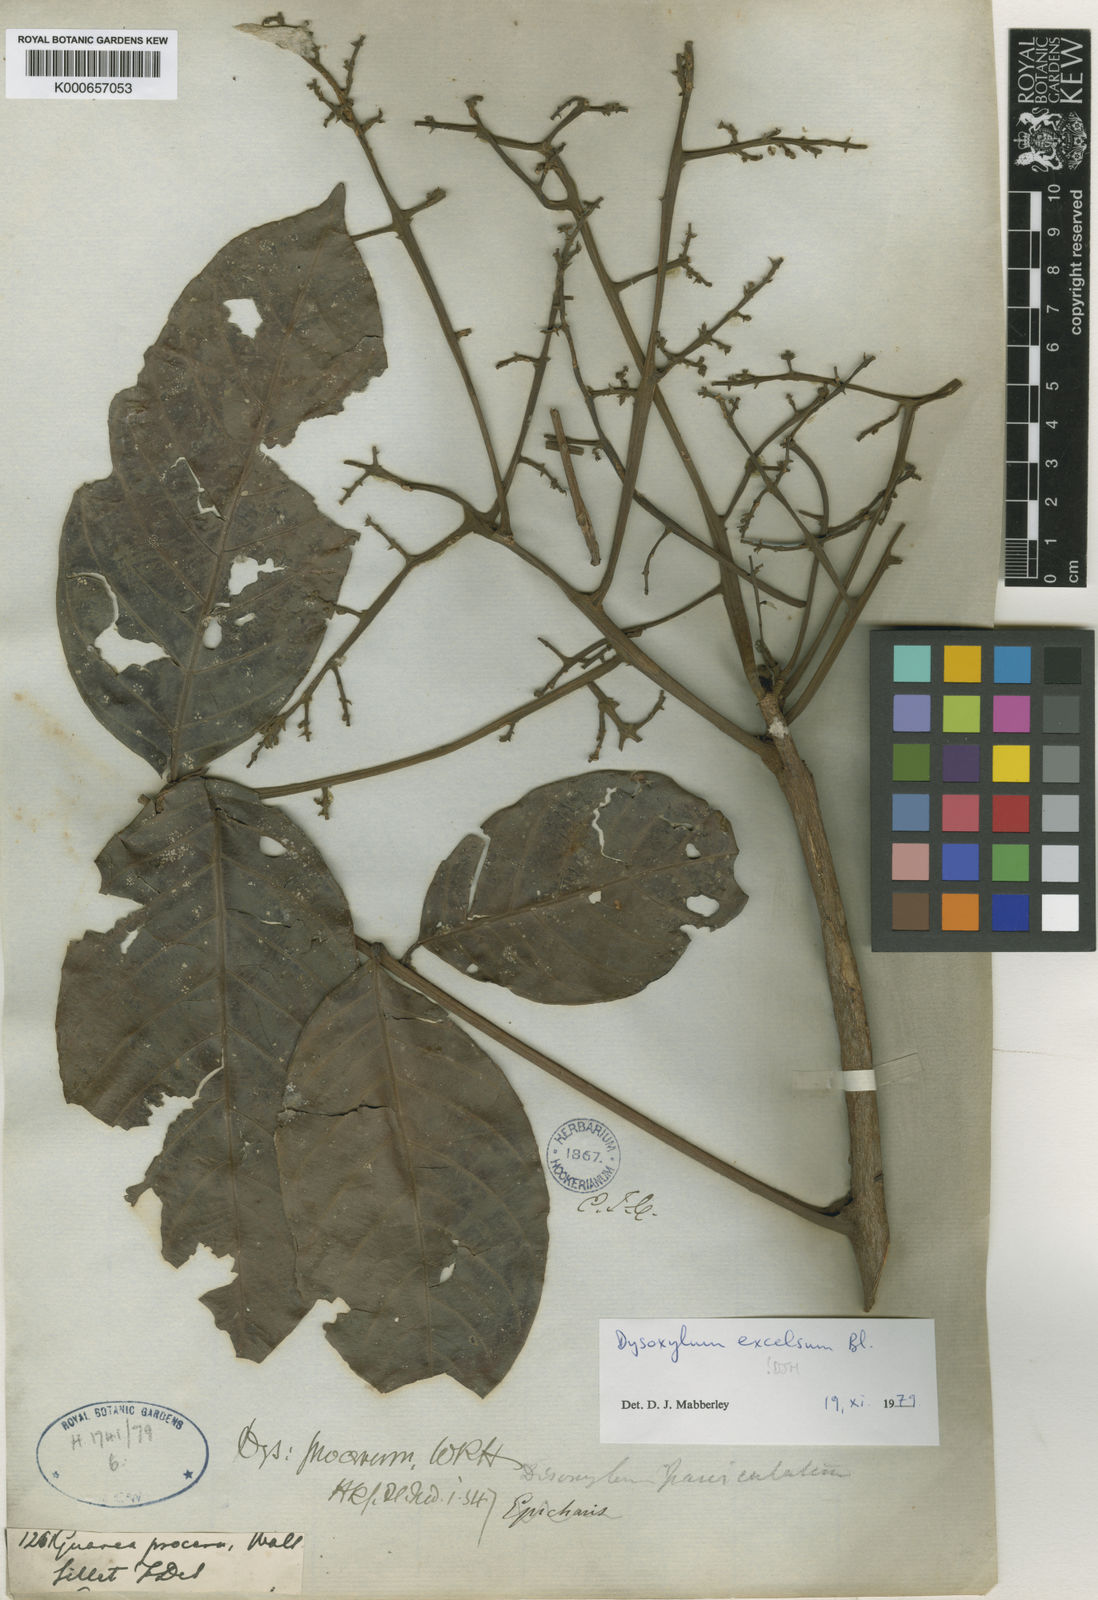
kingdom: Plantae
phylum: Tracheophyta
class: Magnoliopsida
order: Sapindales
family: Meliaceae
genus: Prasoxylon
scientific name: Prasoxylon excelsum
